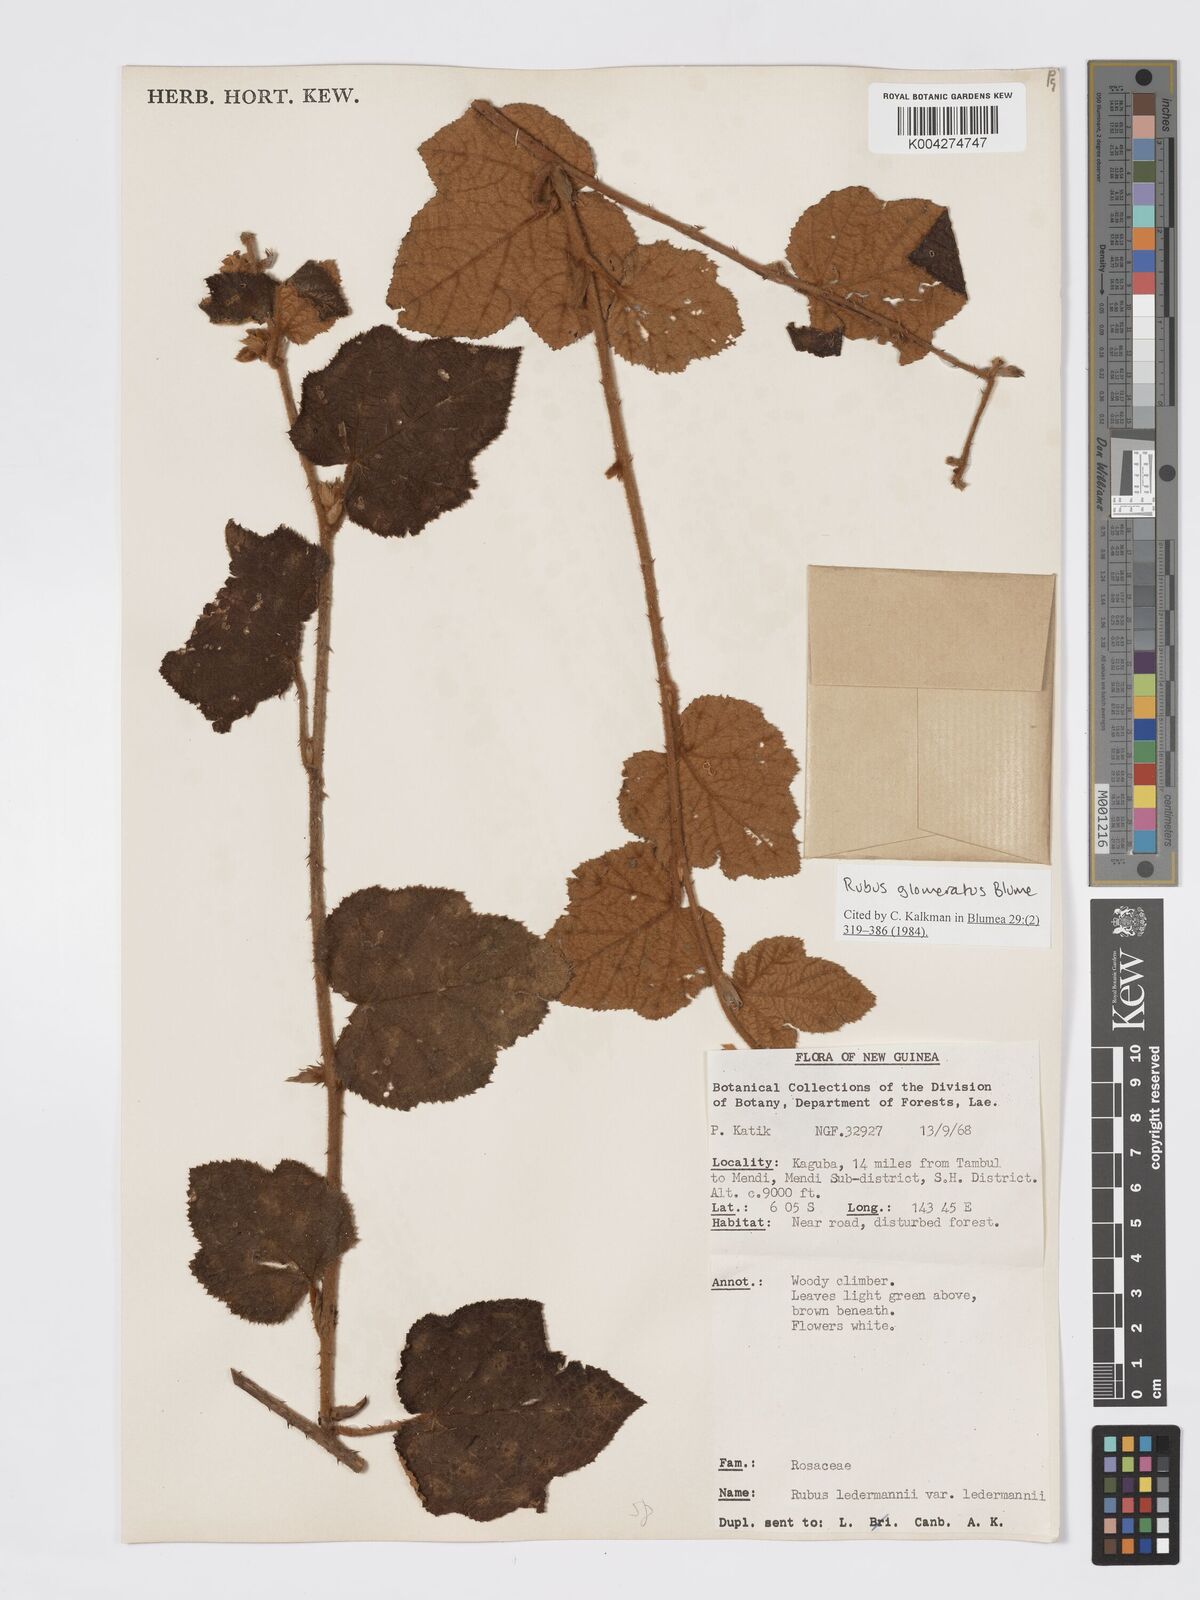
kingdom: Plantae
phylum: Tracheophyta
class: Magnoliopsida
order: Rosales
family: Rosaceae
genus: Rubus
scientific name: Rubus
